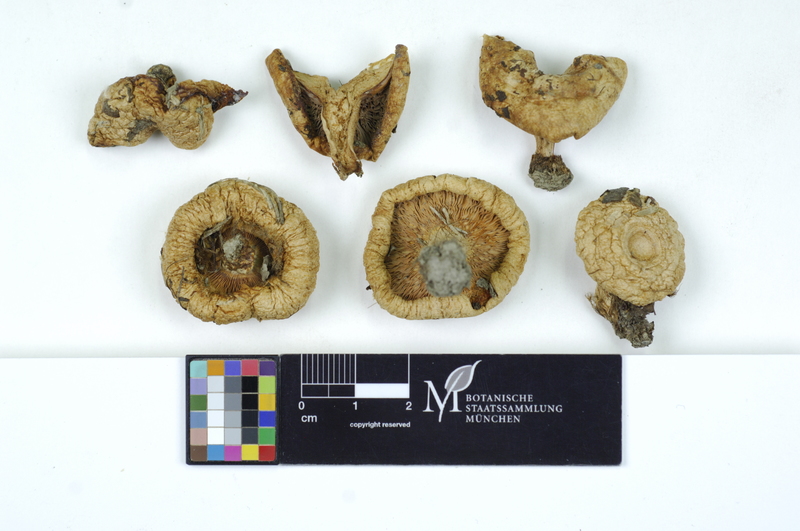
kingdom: Fungi
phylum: Basidiomycota
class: Agaricomycetes
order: Russulales
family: Russulaceae
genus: Lactarius
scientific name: Lactarius pubescens
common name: Bearded milkcap
